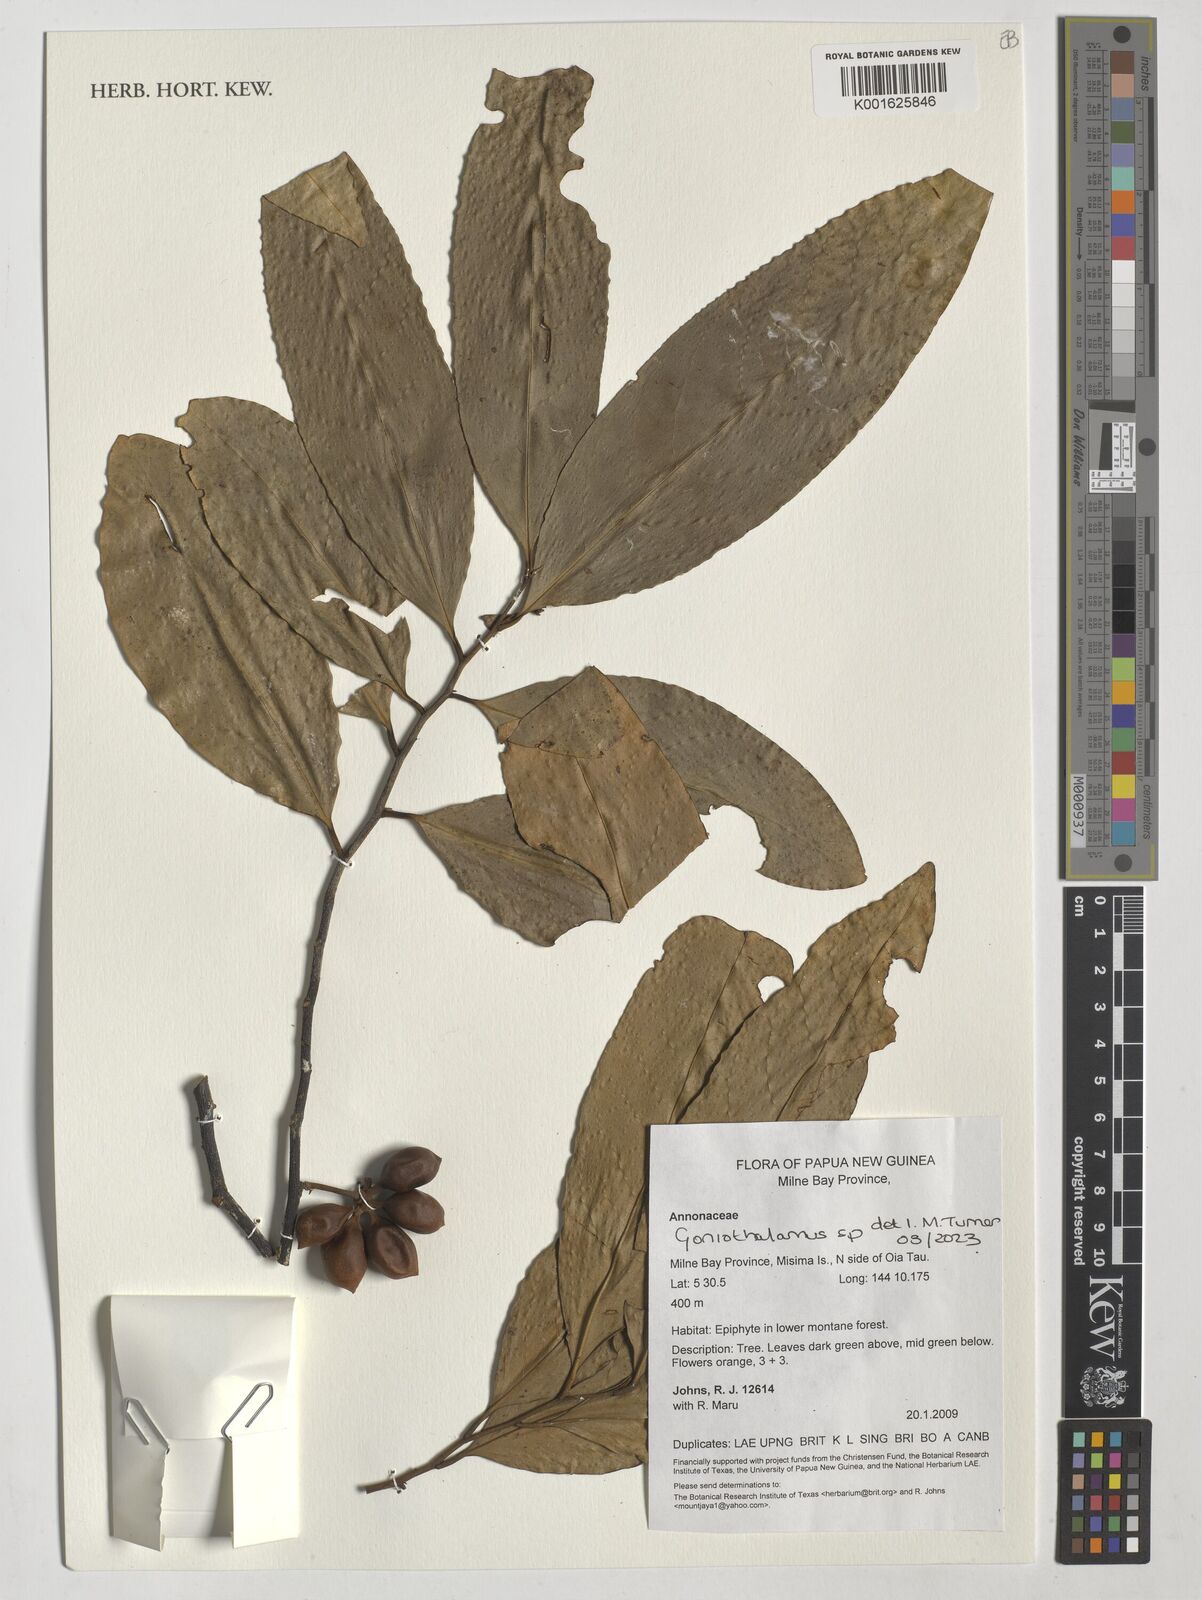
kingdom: Plantae
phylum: Tracheophyta
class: Magnoliopsida
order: Magnoliales
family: Annonaceae
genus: Goniothalamus
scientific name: Goniothalamus
